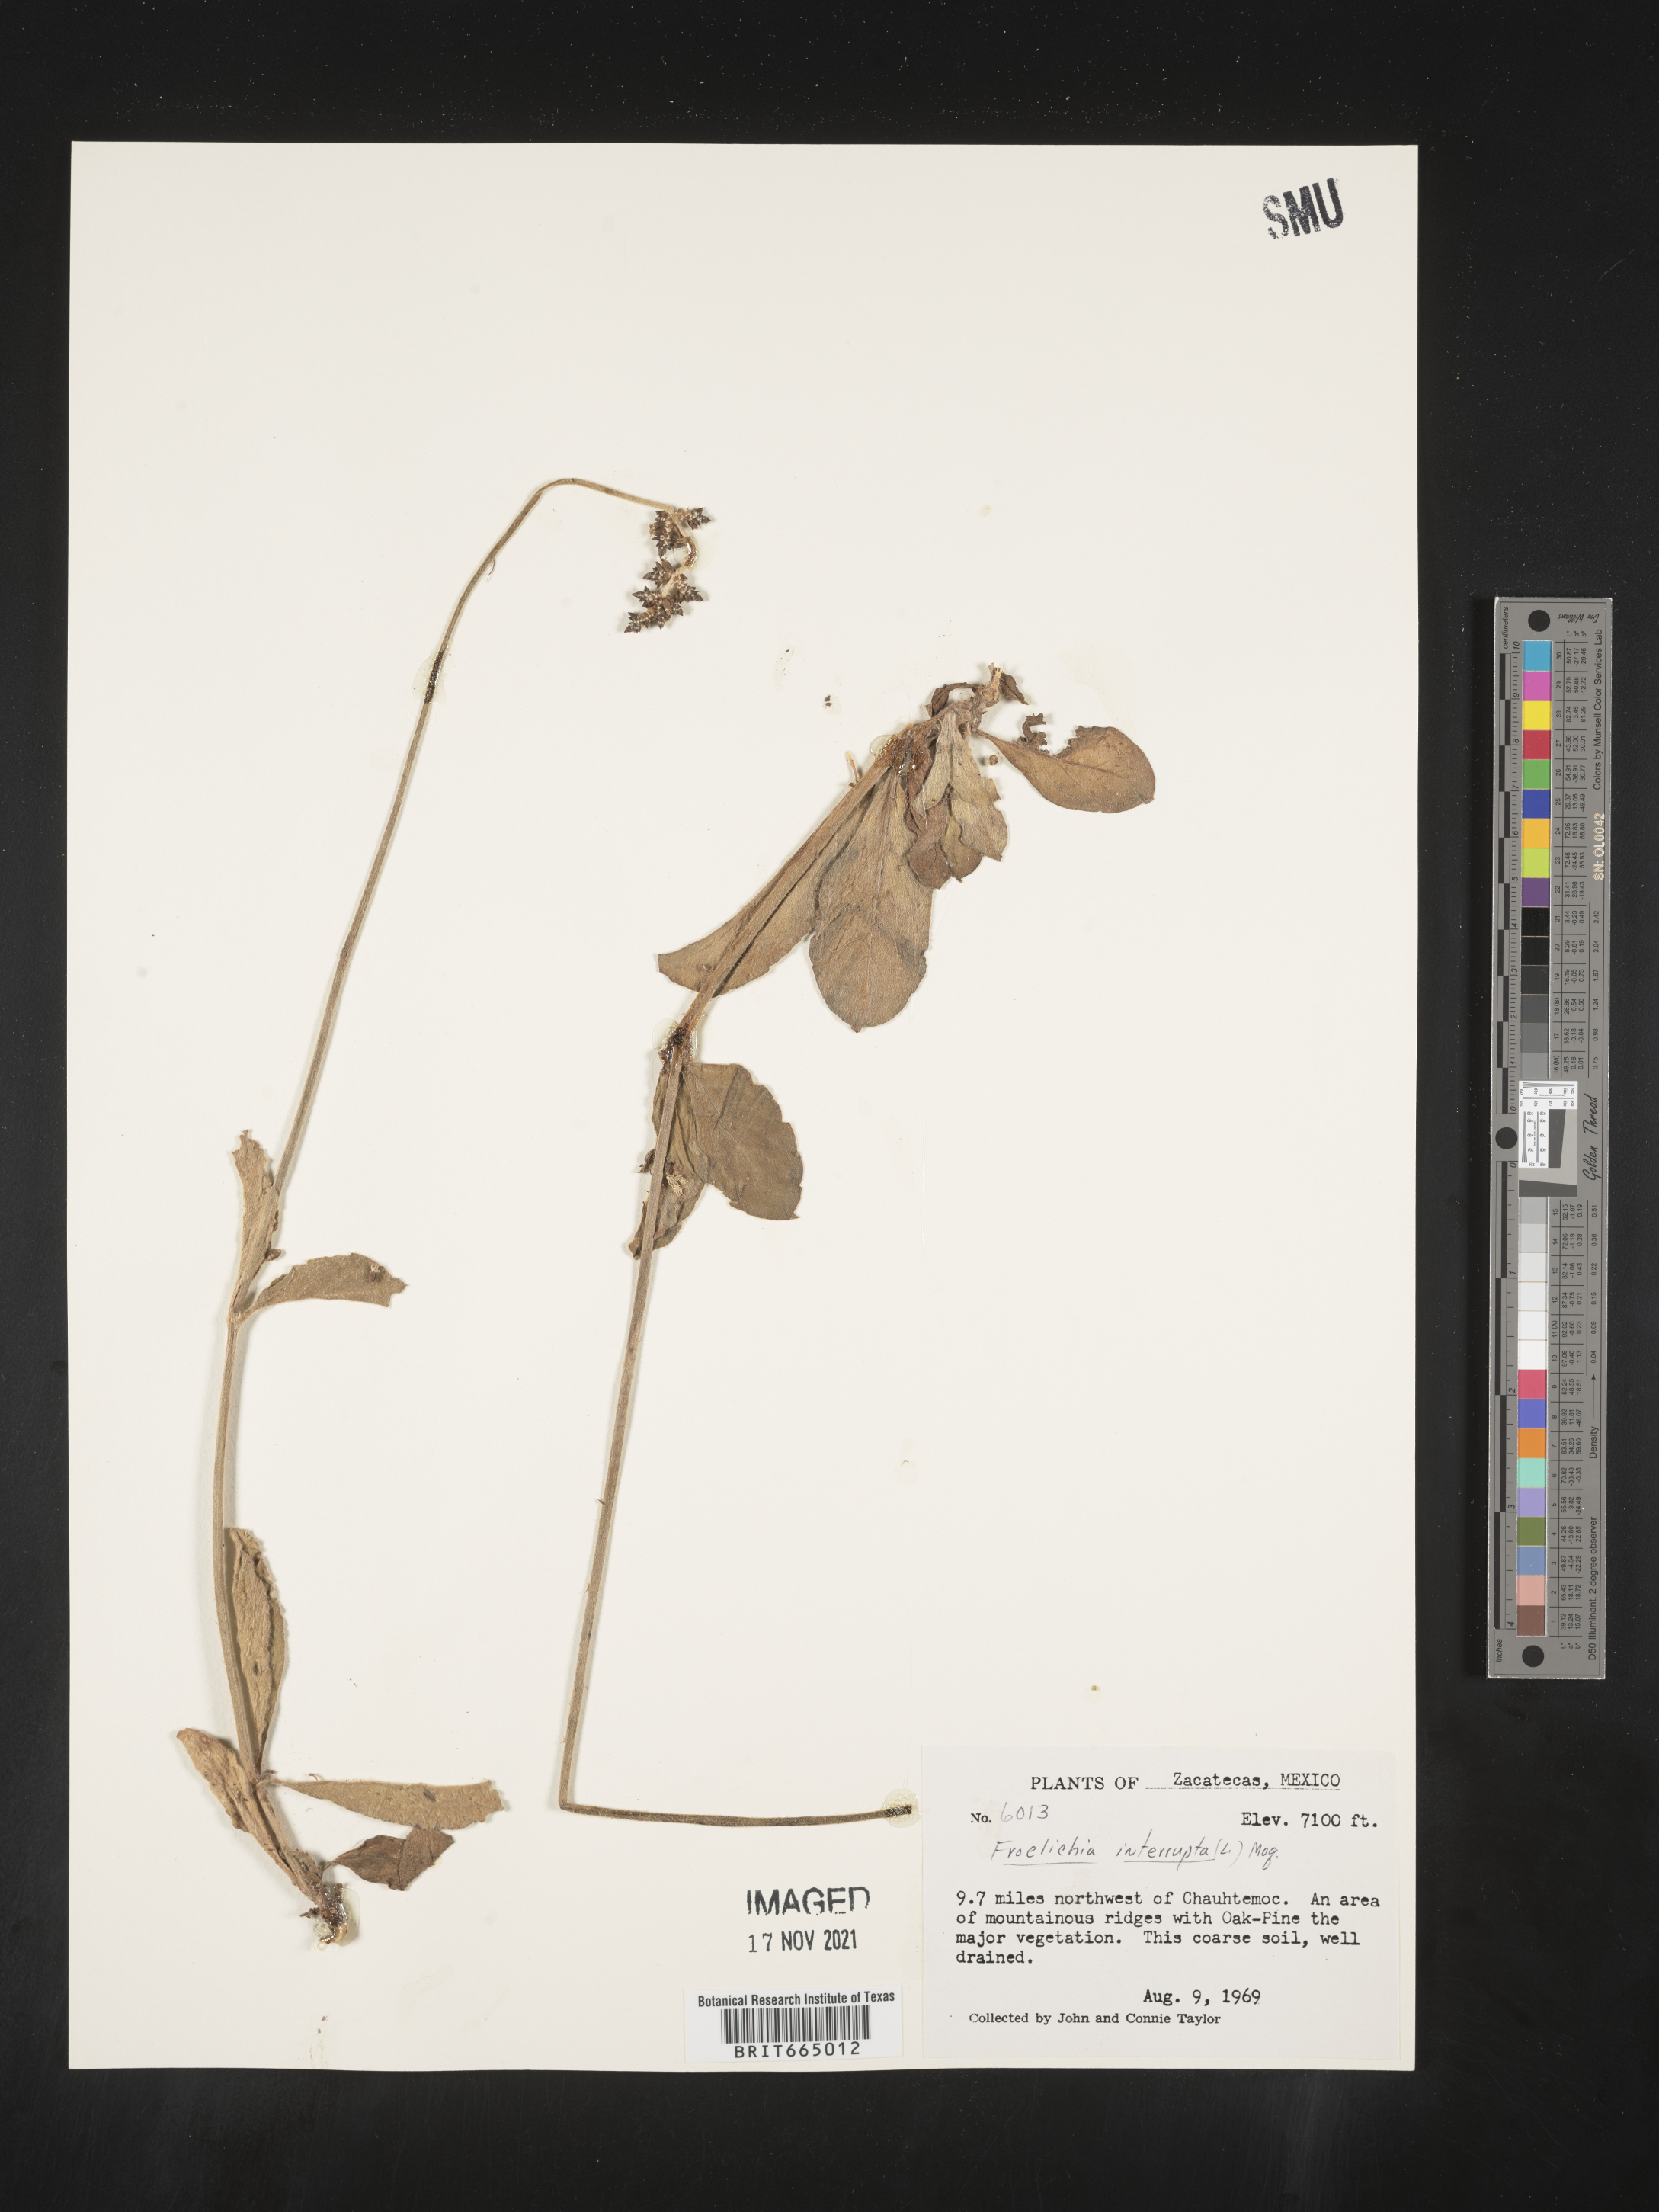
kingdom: Plantae
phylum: Tracheophyta
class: Magnoliopsida
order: Caryophyllales
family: Amaranthaceae
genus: Froelichia
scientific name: Froelichia
